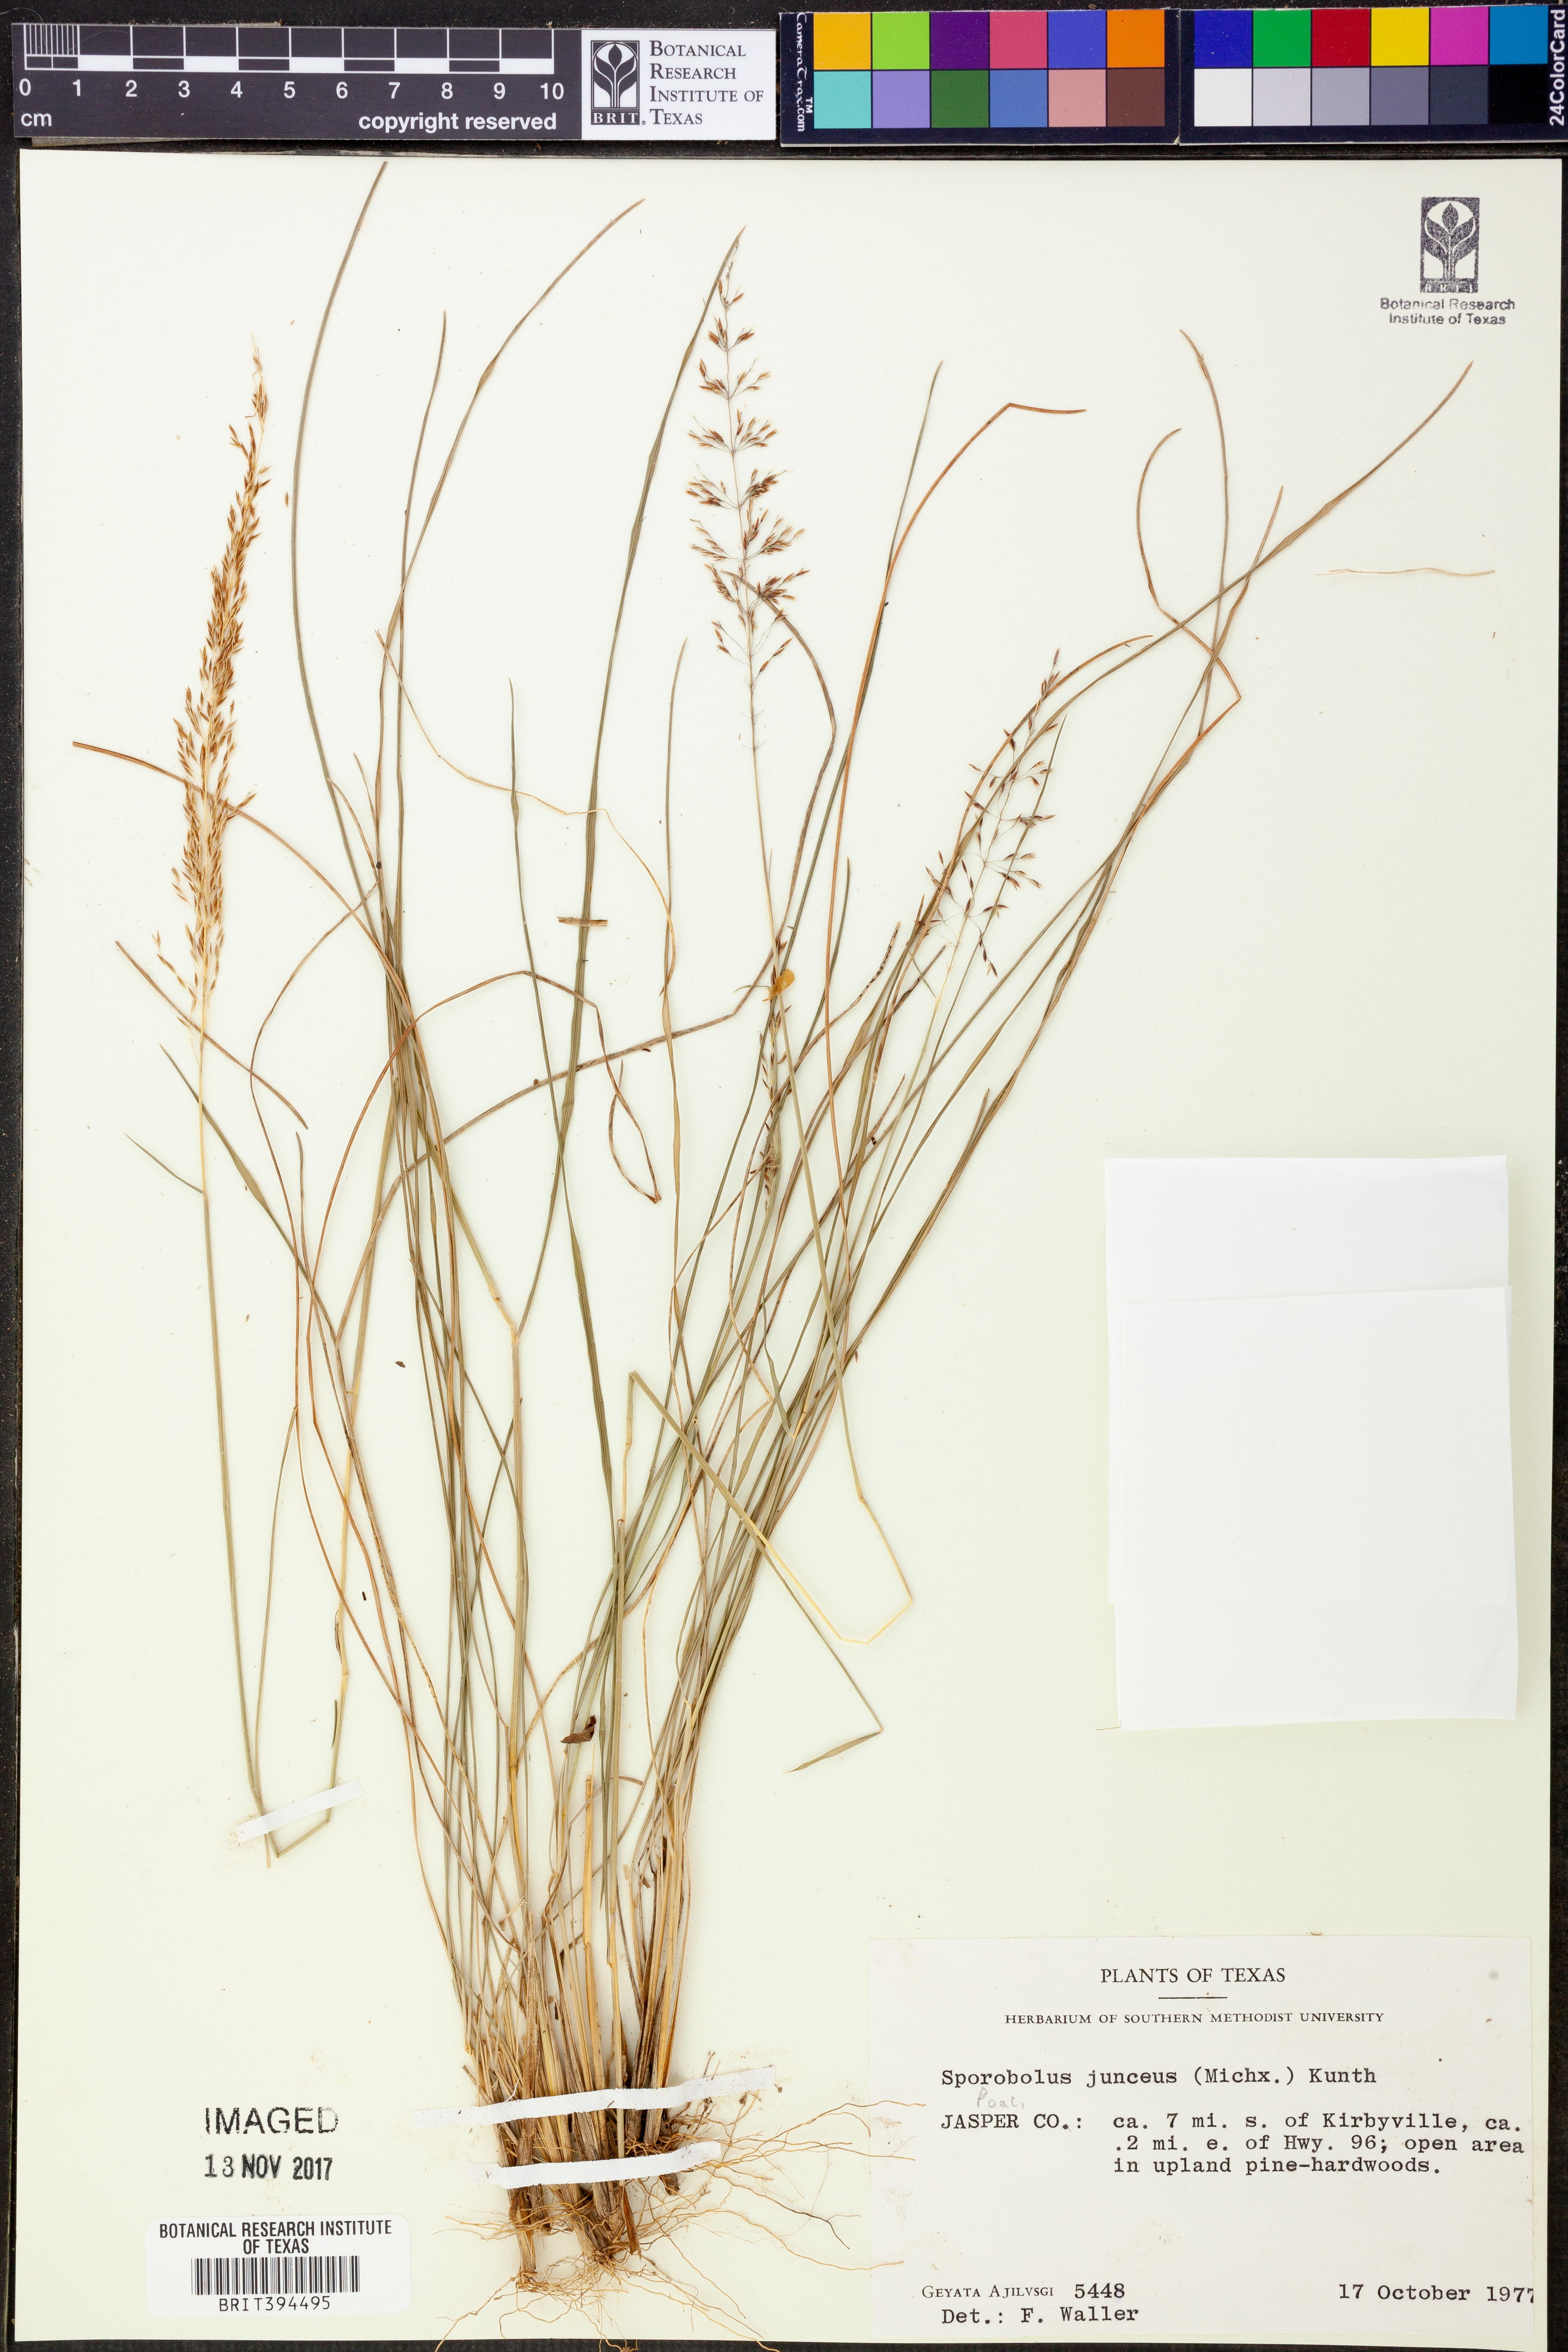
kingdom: Plantae
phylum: Tracheophyta
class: Liliopsida
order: Poales
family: Poaceae
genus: Sporobolus
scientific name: Sporobolus junceus
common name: Lizard grass
